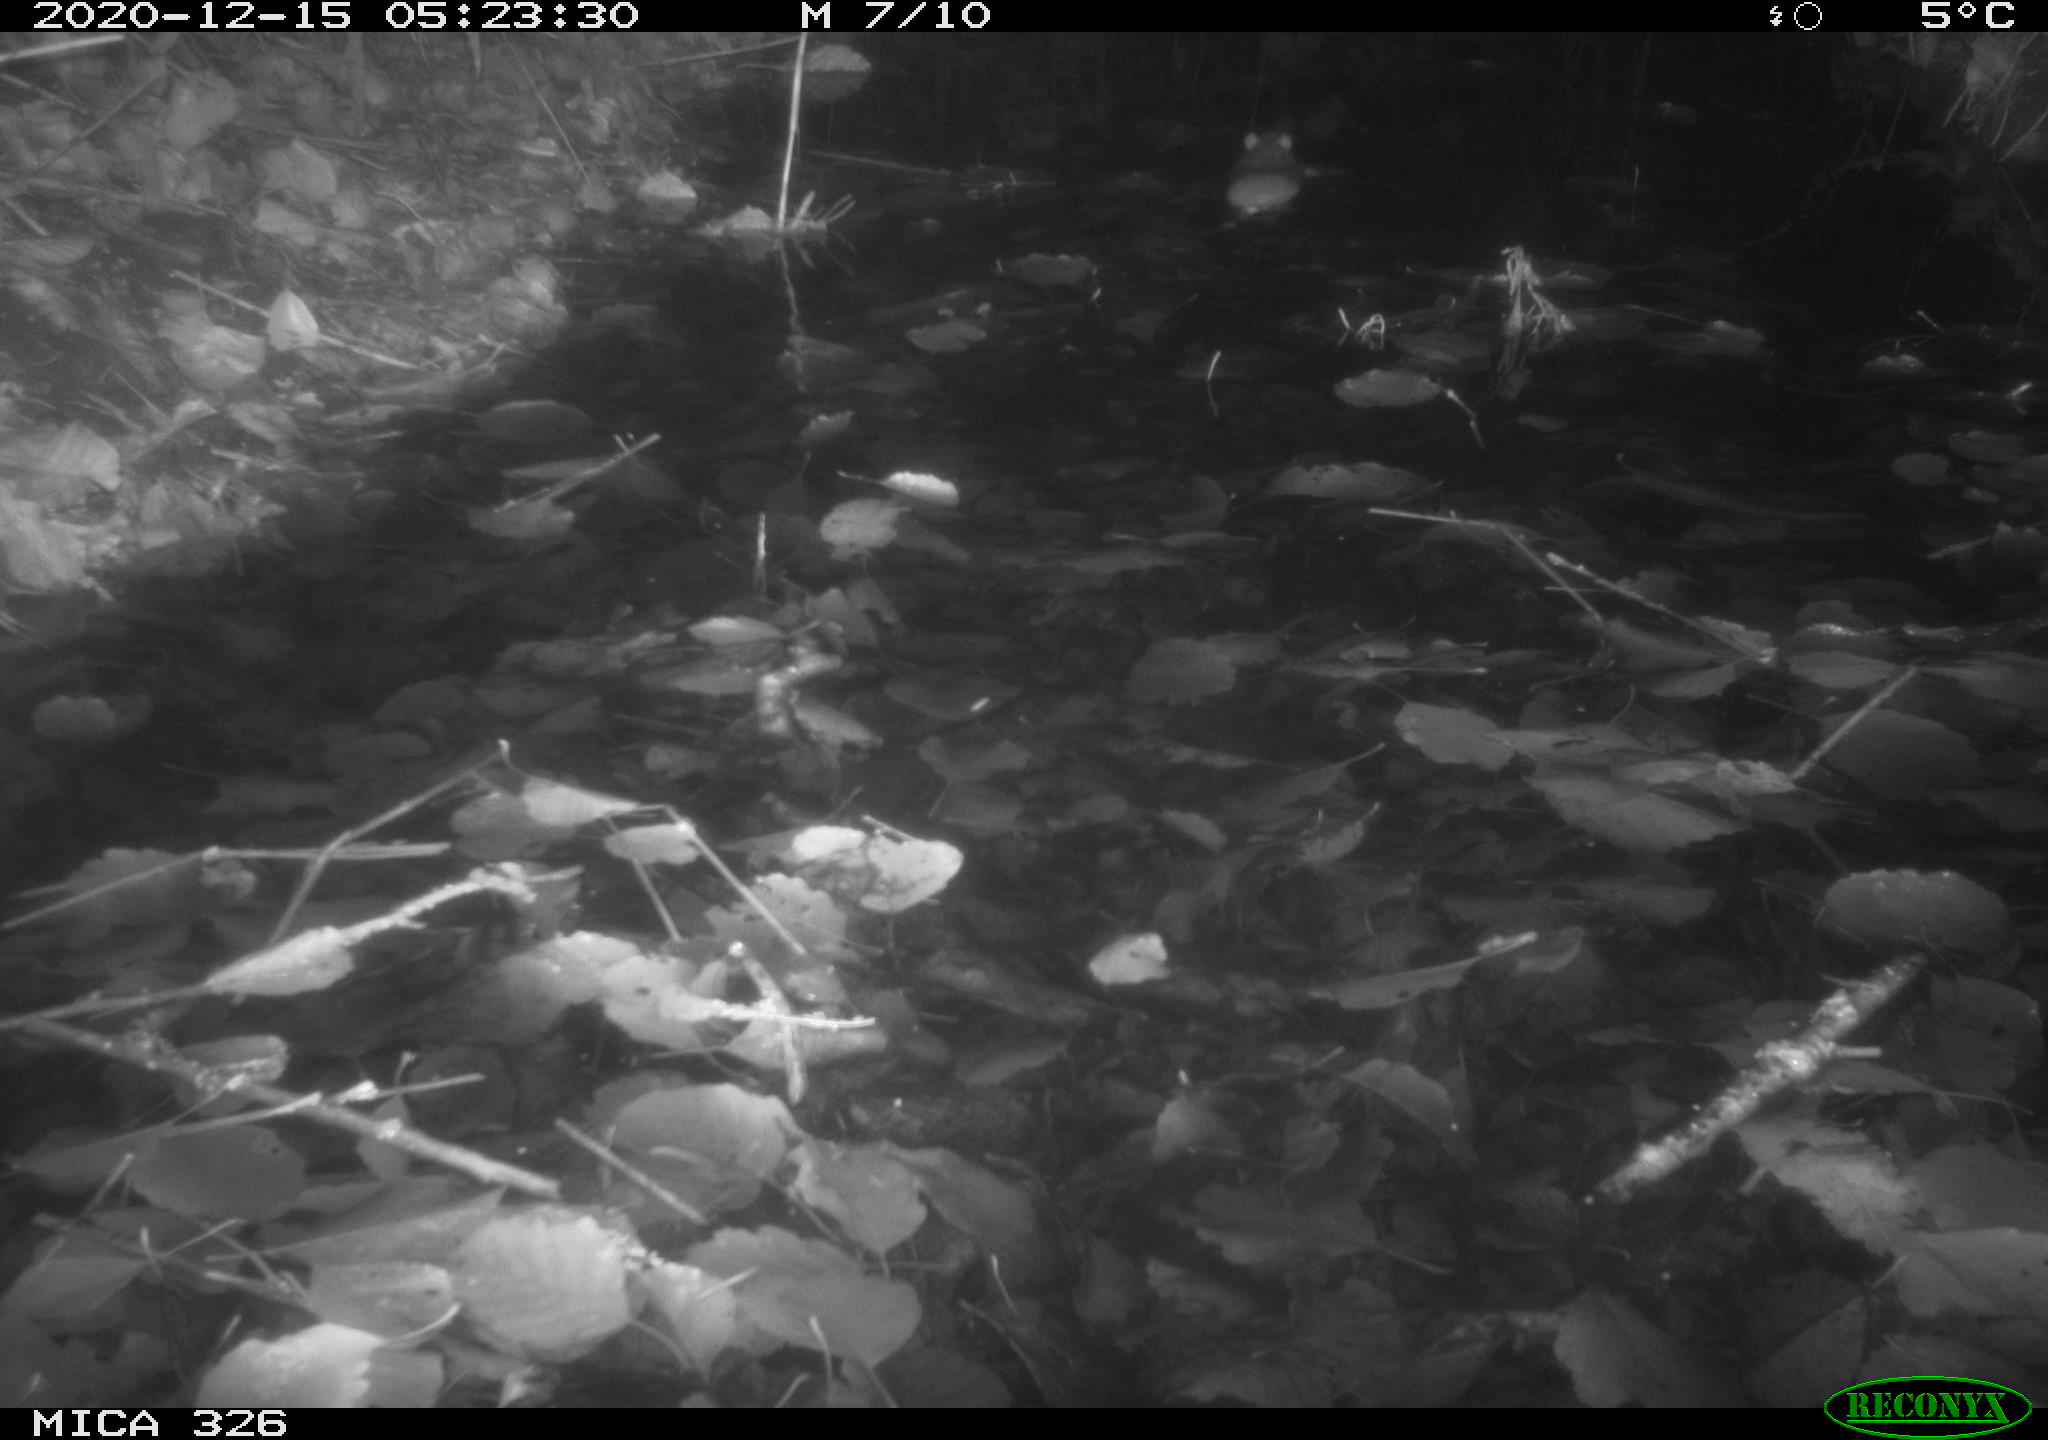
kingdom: Animalia
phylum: Chordata
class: Mammalia
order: Rodentia
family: Muridae
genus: Rattus
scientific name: Rattus norvegicus
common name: Brown rat
